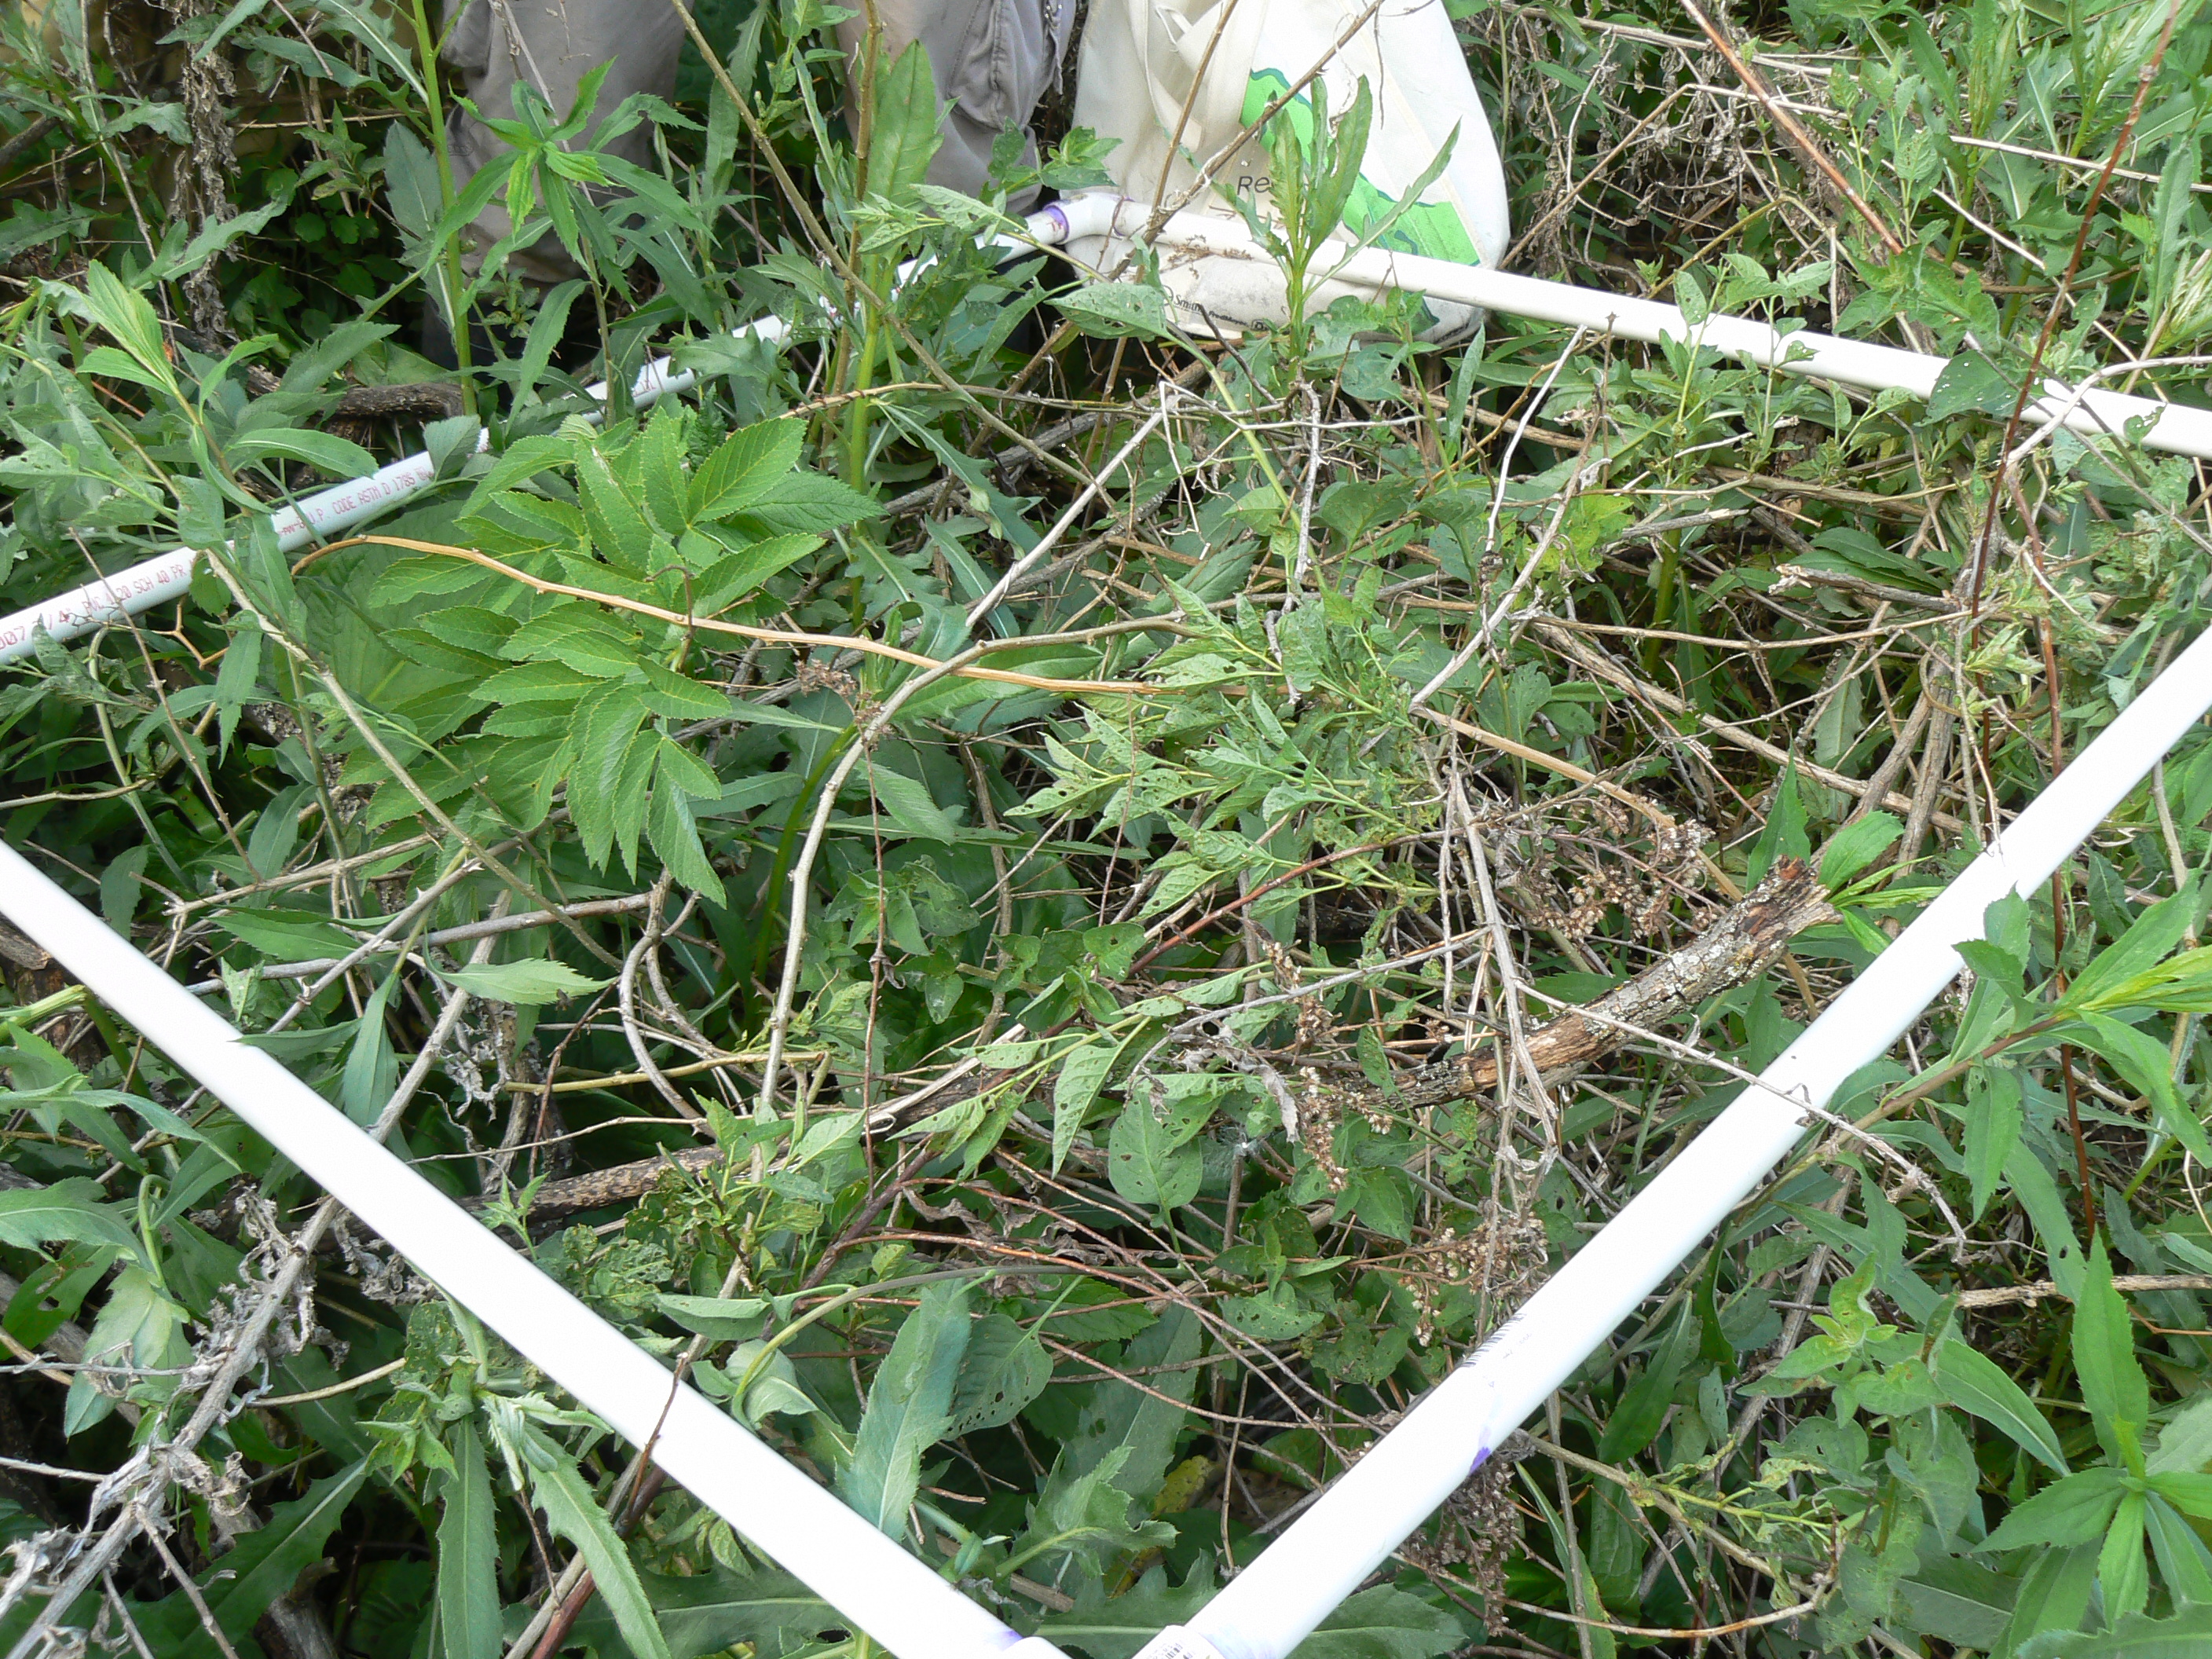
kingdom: Plantae
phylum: Tracheophyta
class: Magnoliopsida
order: Apiales
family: Apiaceae
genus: Angelica
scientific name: Angelica atropurpurea
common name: Great angelica
